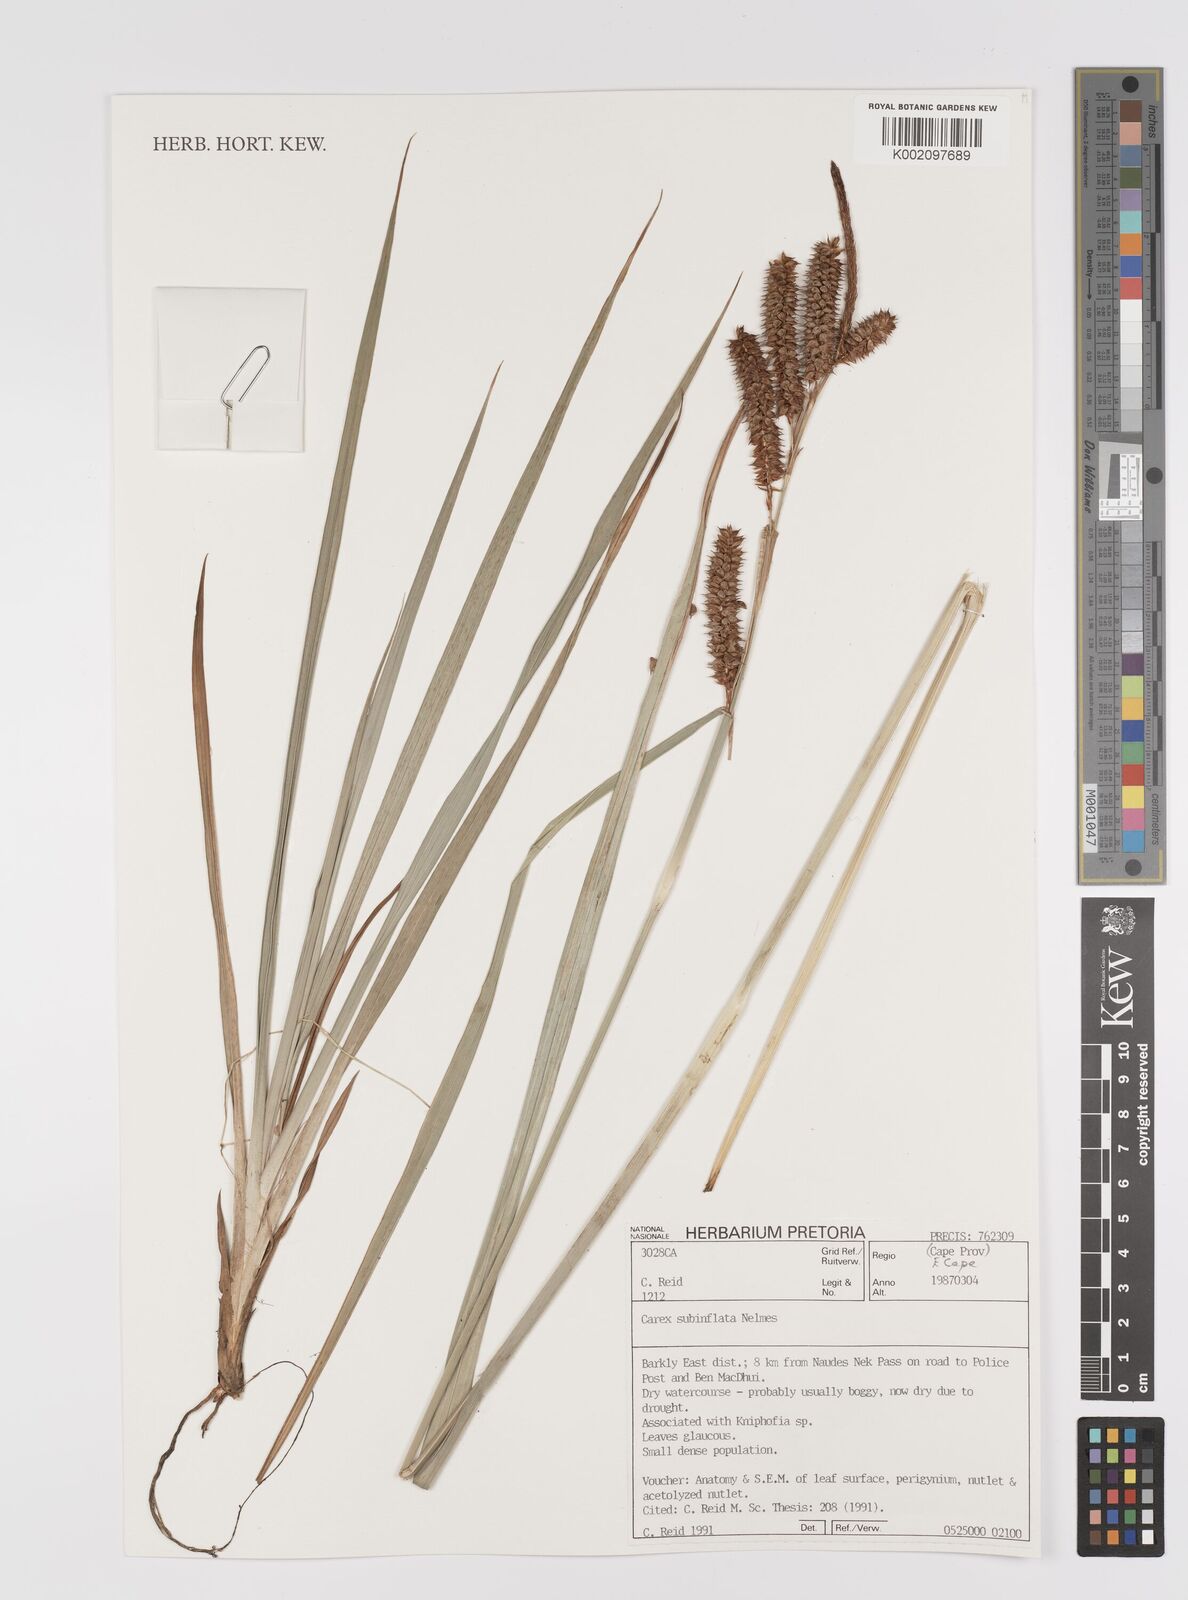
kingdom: Plantae
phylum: Tracheophyta
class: Liliopsida
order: Poales
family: Cyperaceae
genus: Carex
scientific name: Carex subinflata
